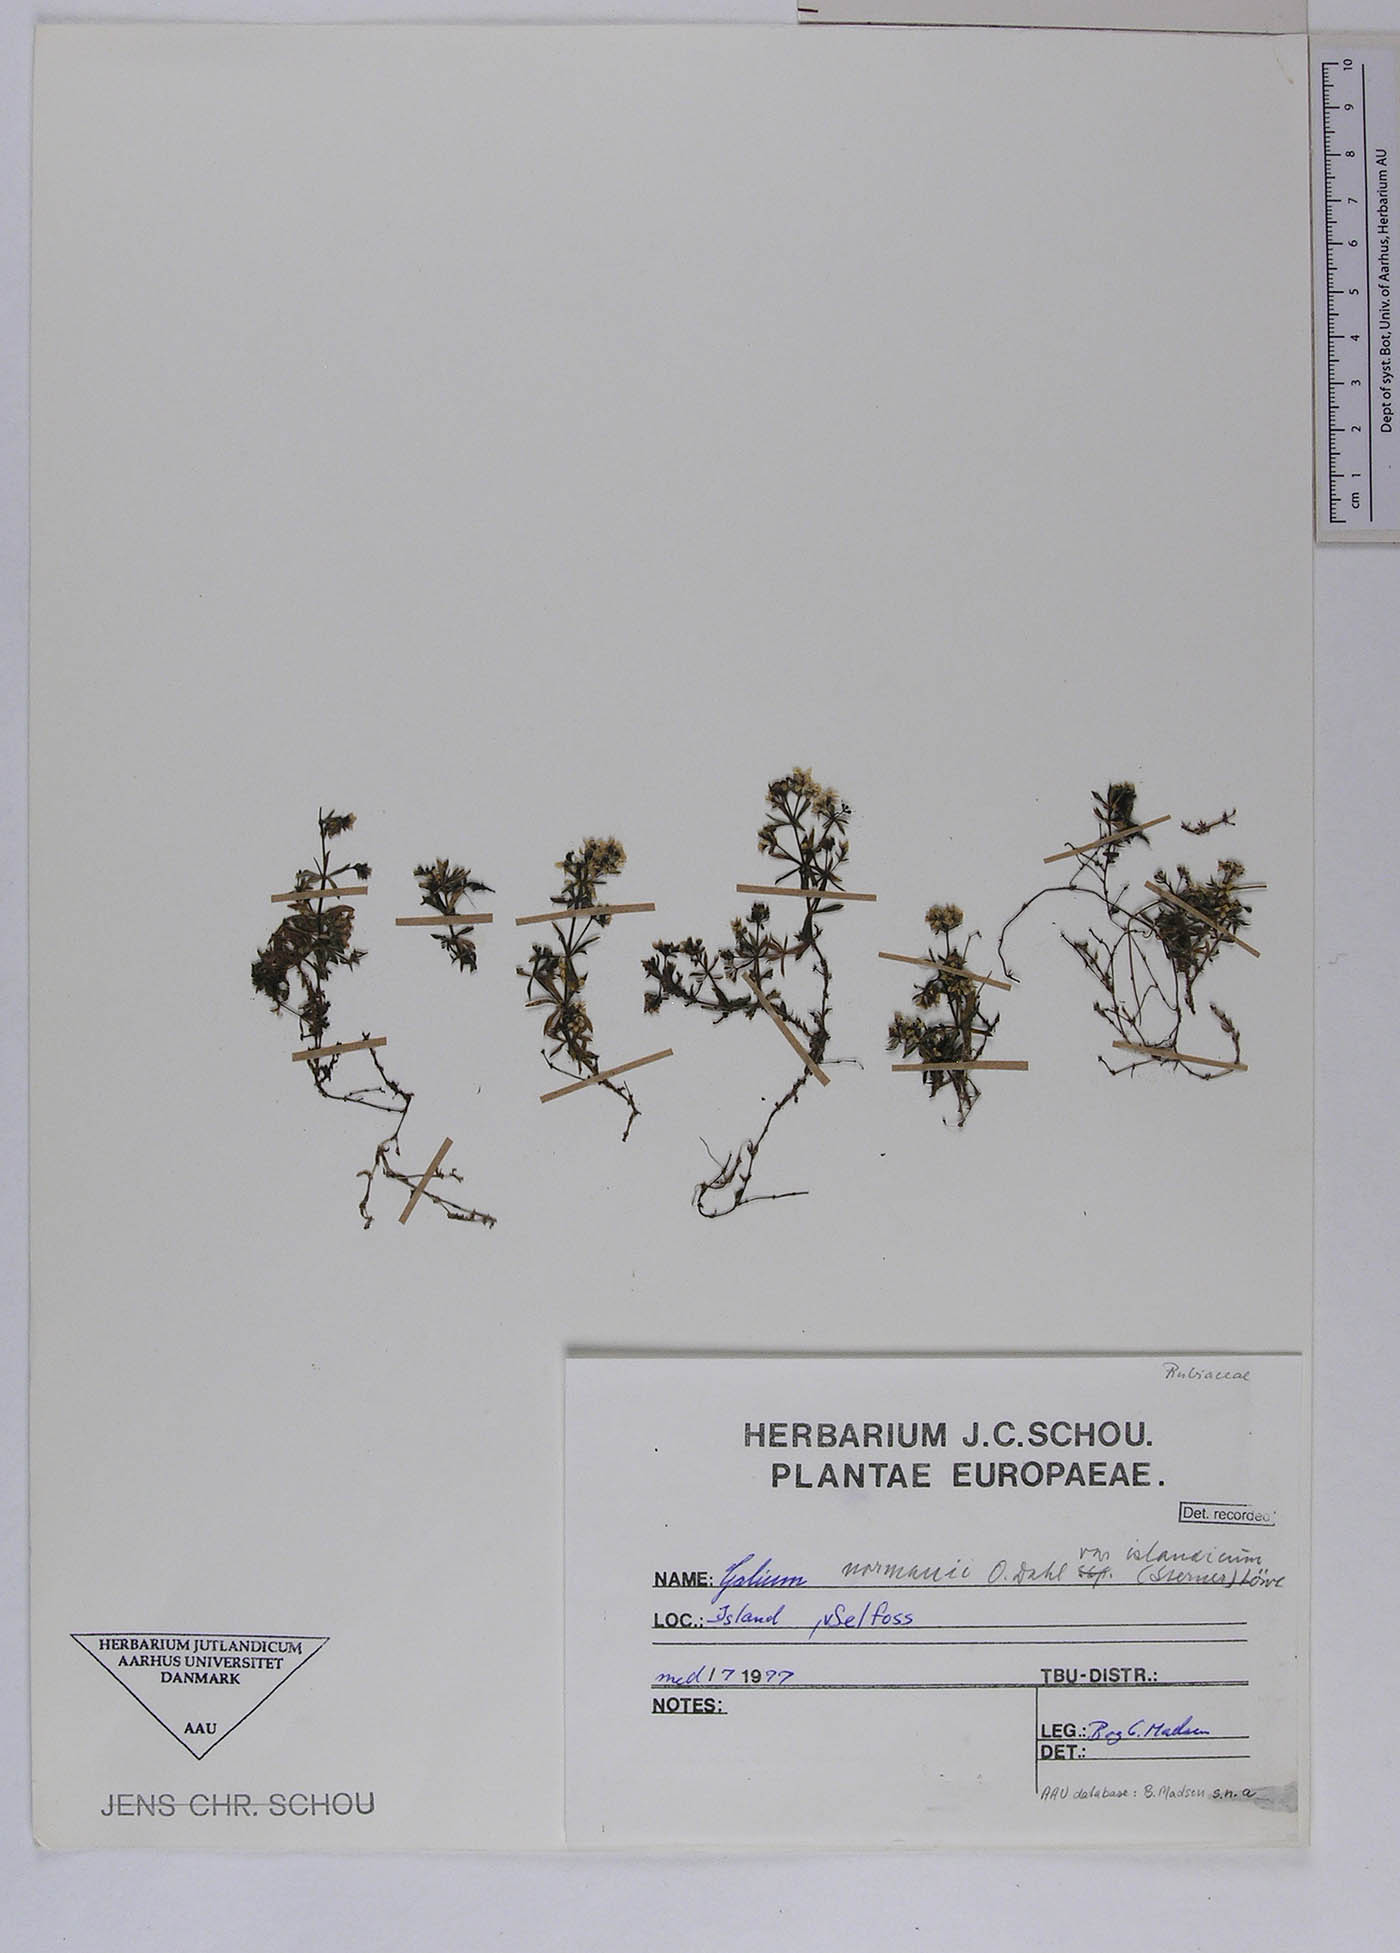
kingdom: Plantae
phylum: Tracheophyta
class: Magnoliopsida
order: Gentianales
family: Rubiaceae
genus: Galium
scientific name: Galium normanii
